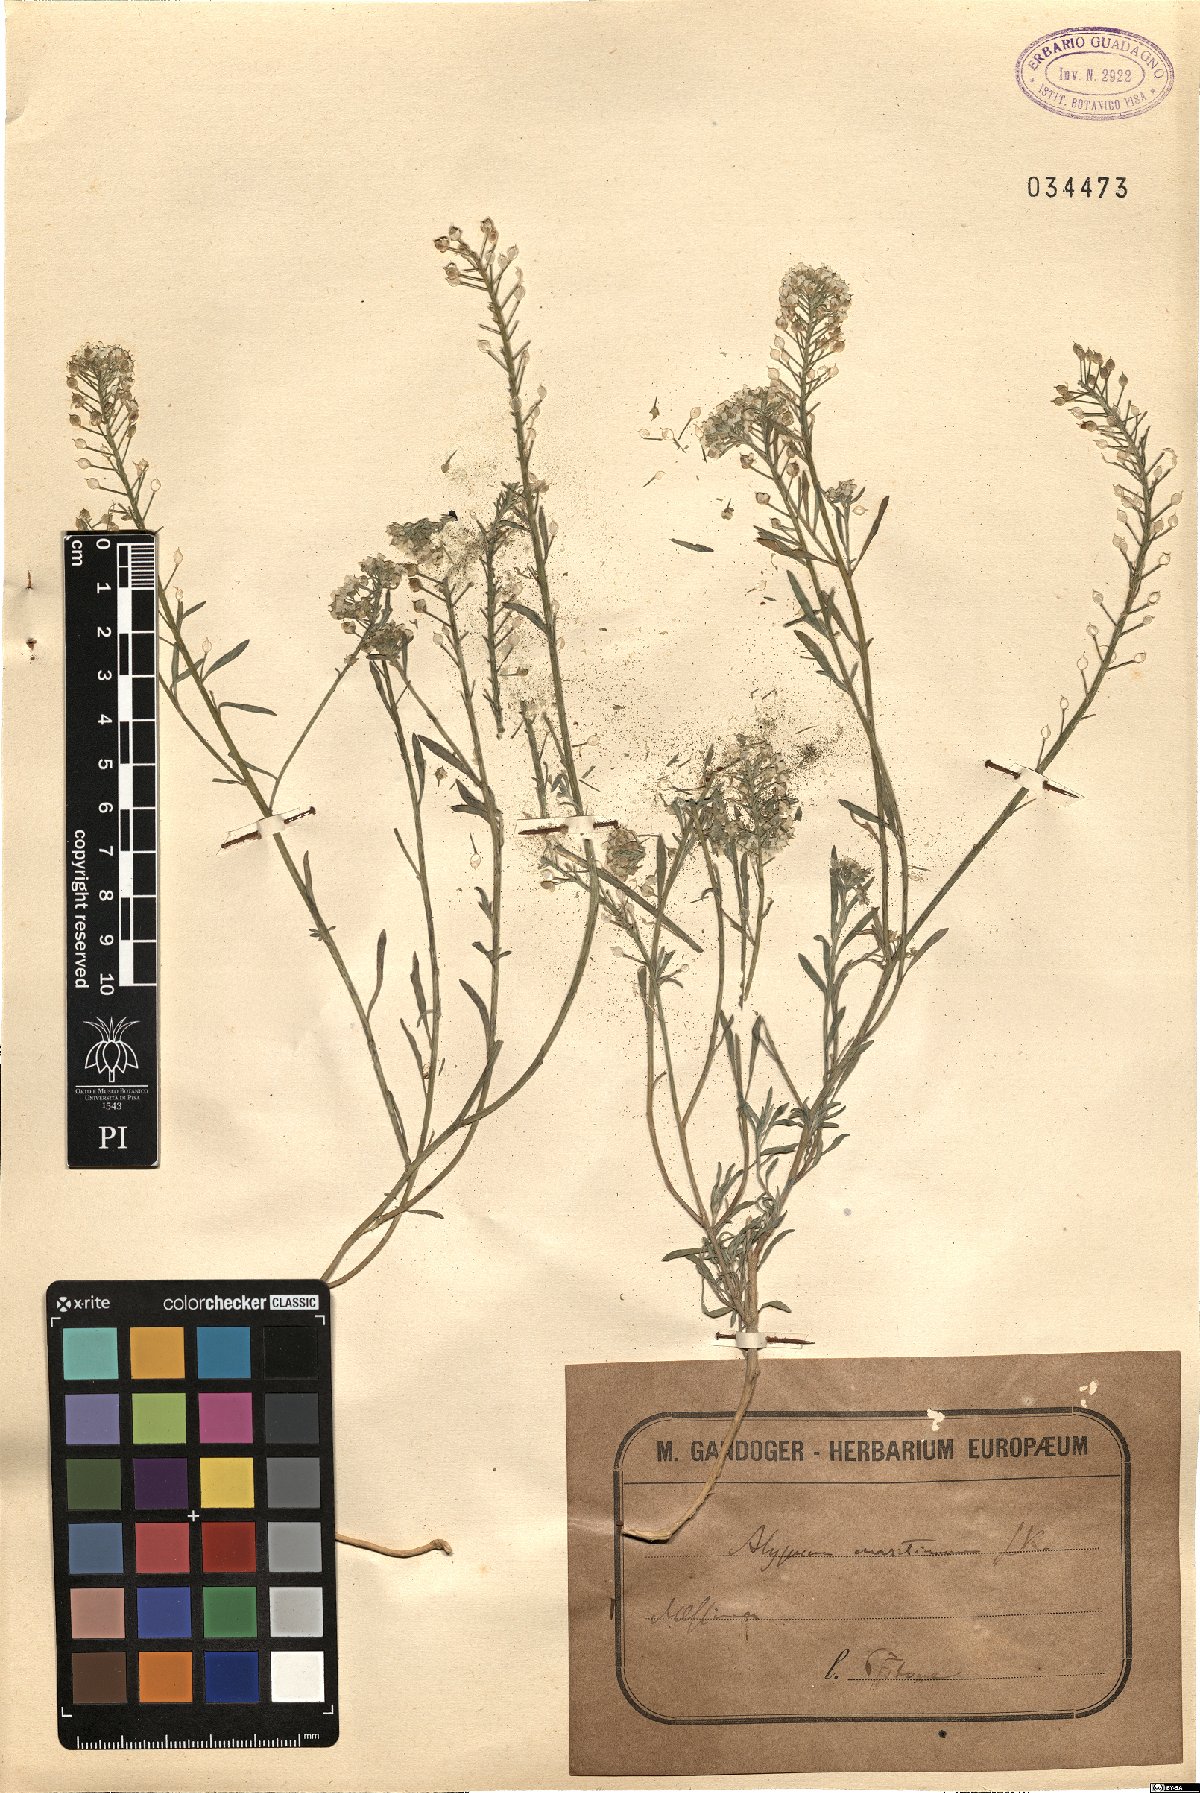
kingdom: Plantae
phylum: Tracheophyta
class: Magnoliopsida
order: Brassicales
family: Brassicaceae
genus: Lobularia
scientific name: Lobularia maritima
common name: Sweet alison
